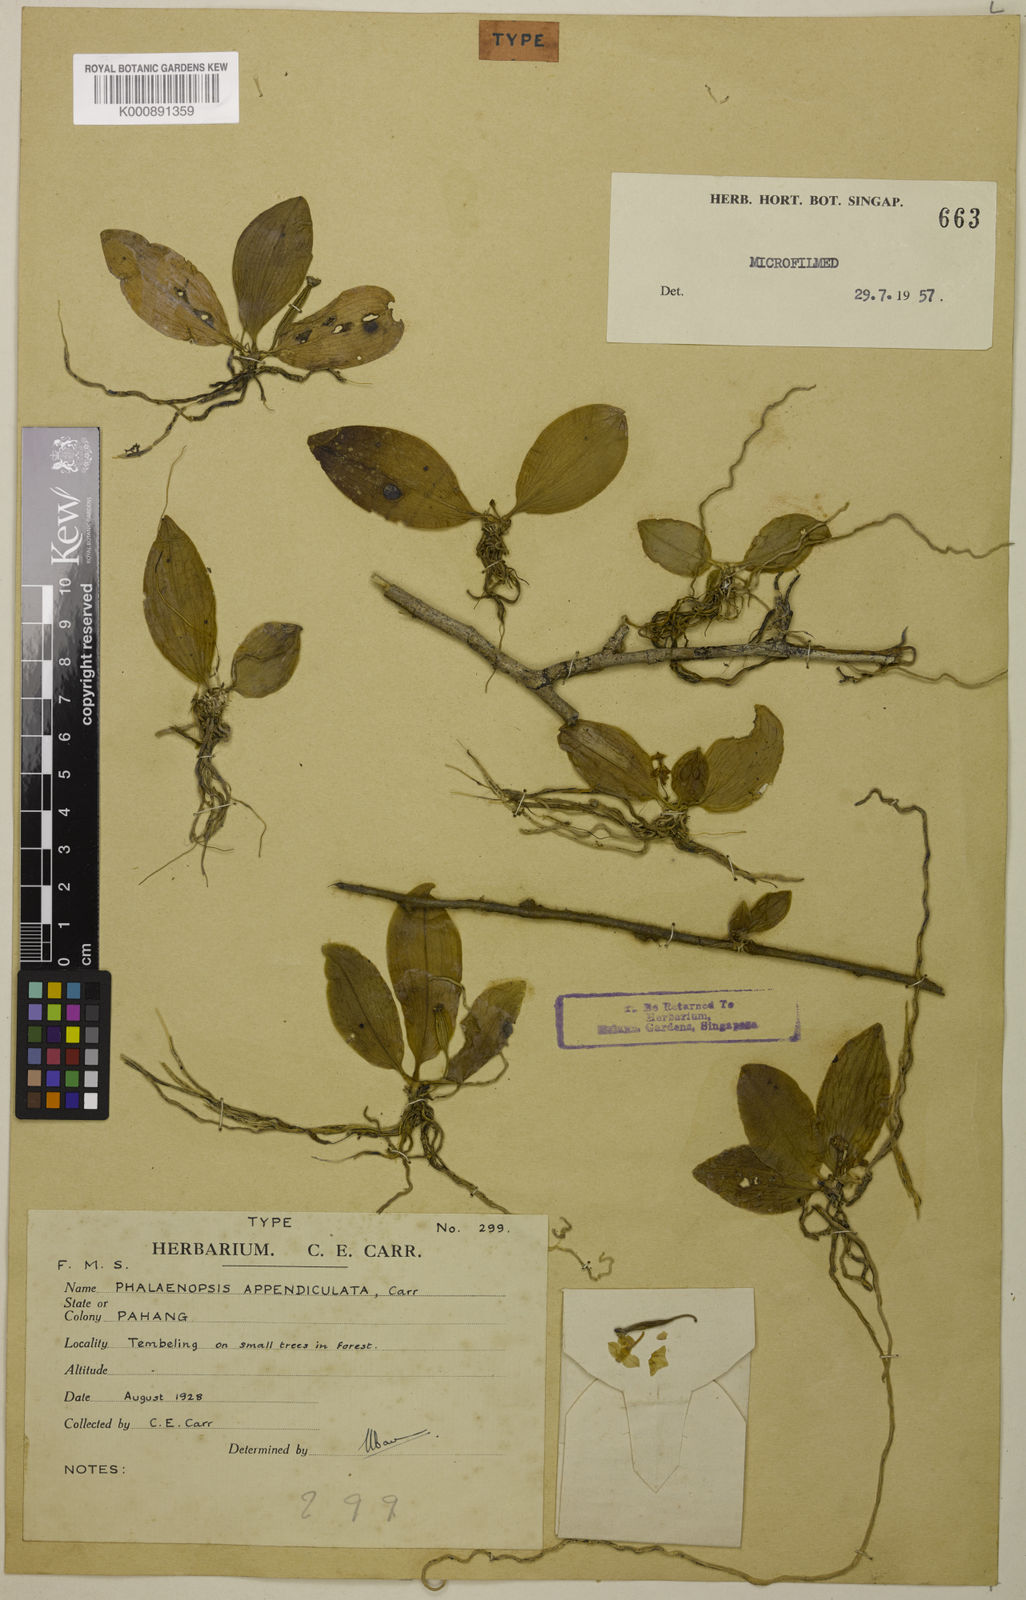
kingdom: Plantae
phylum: Tracheophyta
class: Liliopsida
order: Asparagales
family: Orchidaceae
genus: Phalaenopsis
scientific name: Phalaenopsis appendiculata
